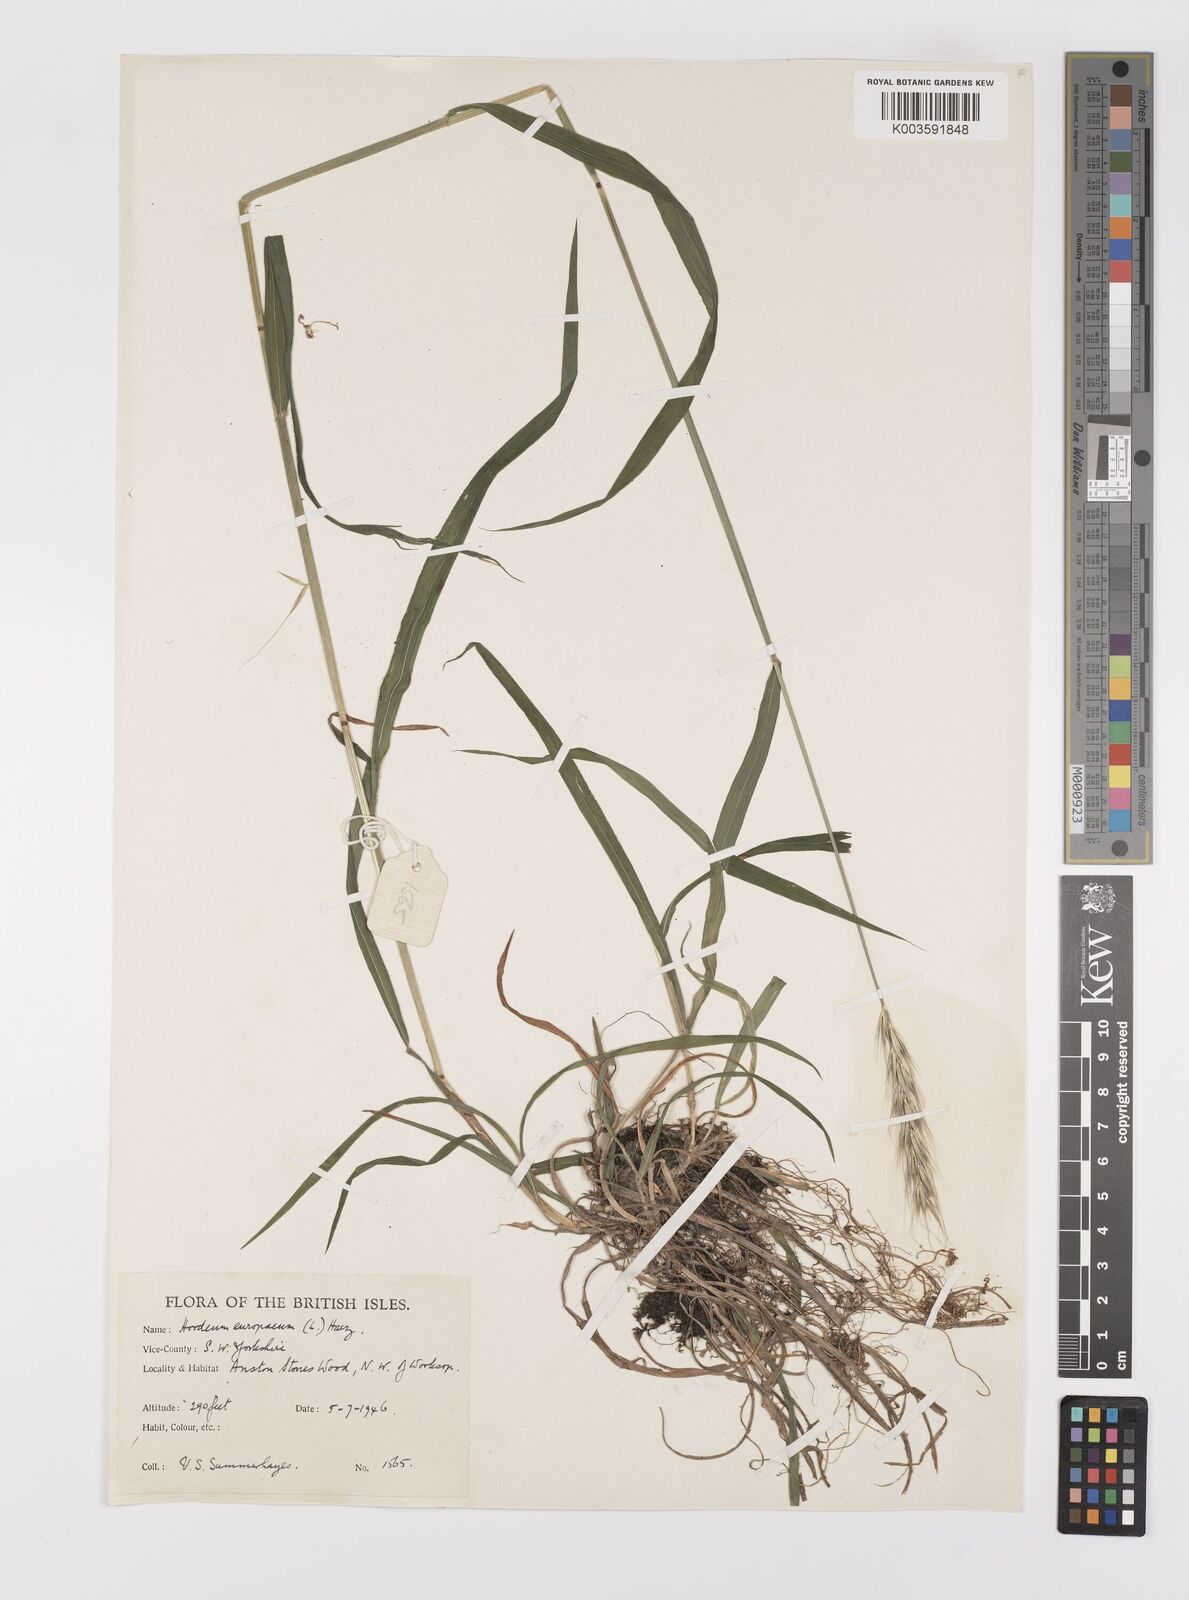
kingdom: Plantae
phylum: Tracheophyta
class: Liliopsida
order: Poales
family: Poaceae
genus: Hordelymus
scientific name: Hordelymus europaeus
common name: Wood-barley
